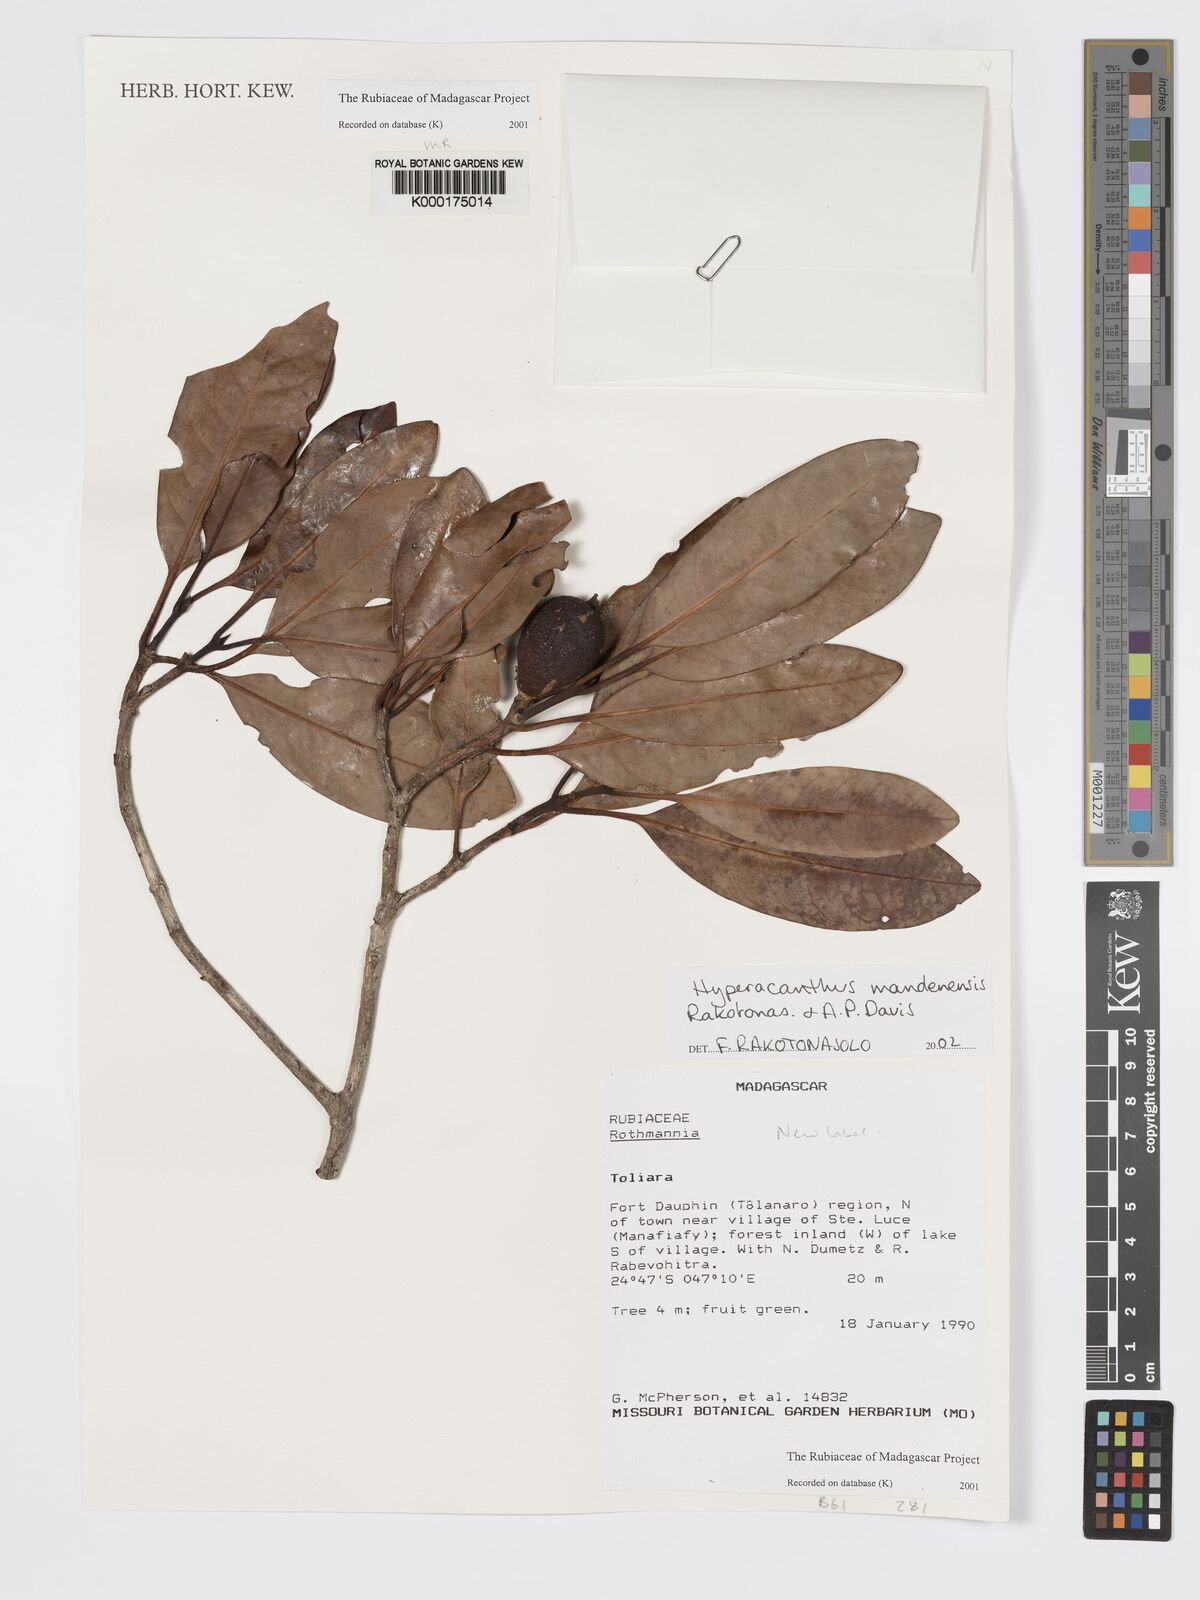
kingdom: Plantae
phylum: Tracheophyta
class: Magnoliopsida
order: Gentianales
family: Rubiaceae
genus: Hyperacanthus
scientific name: Hyperacanthus mandenensis
